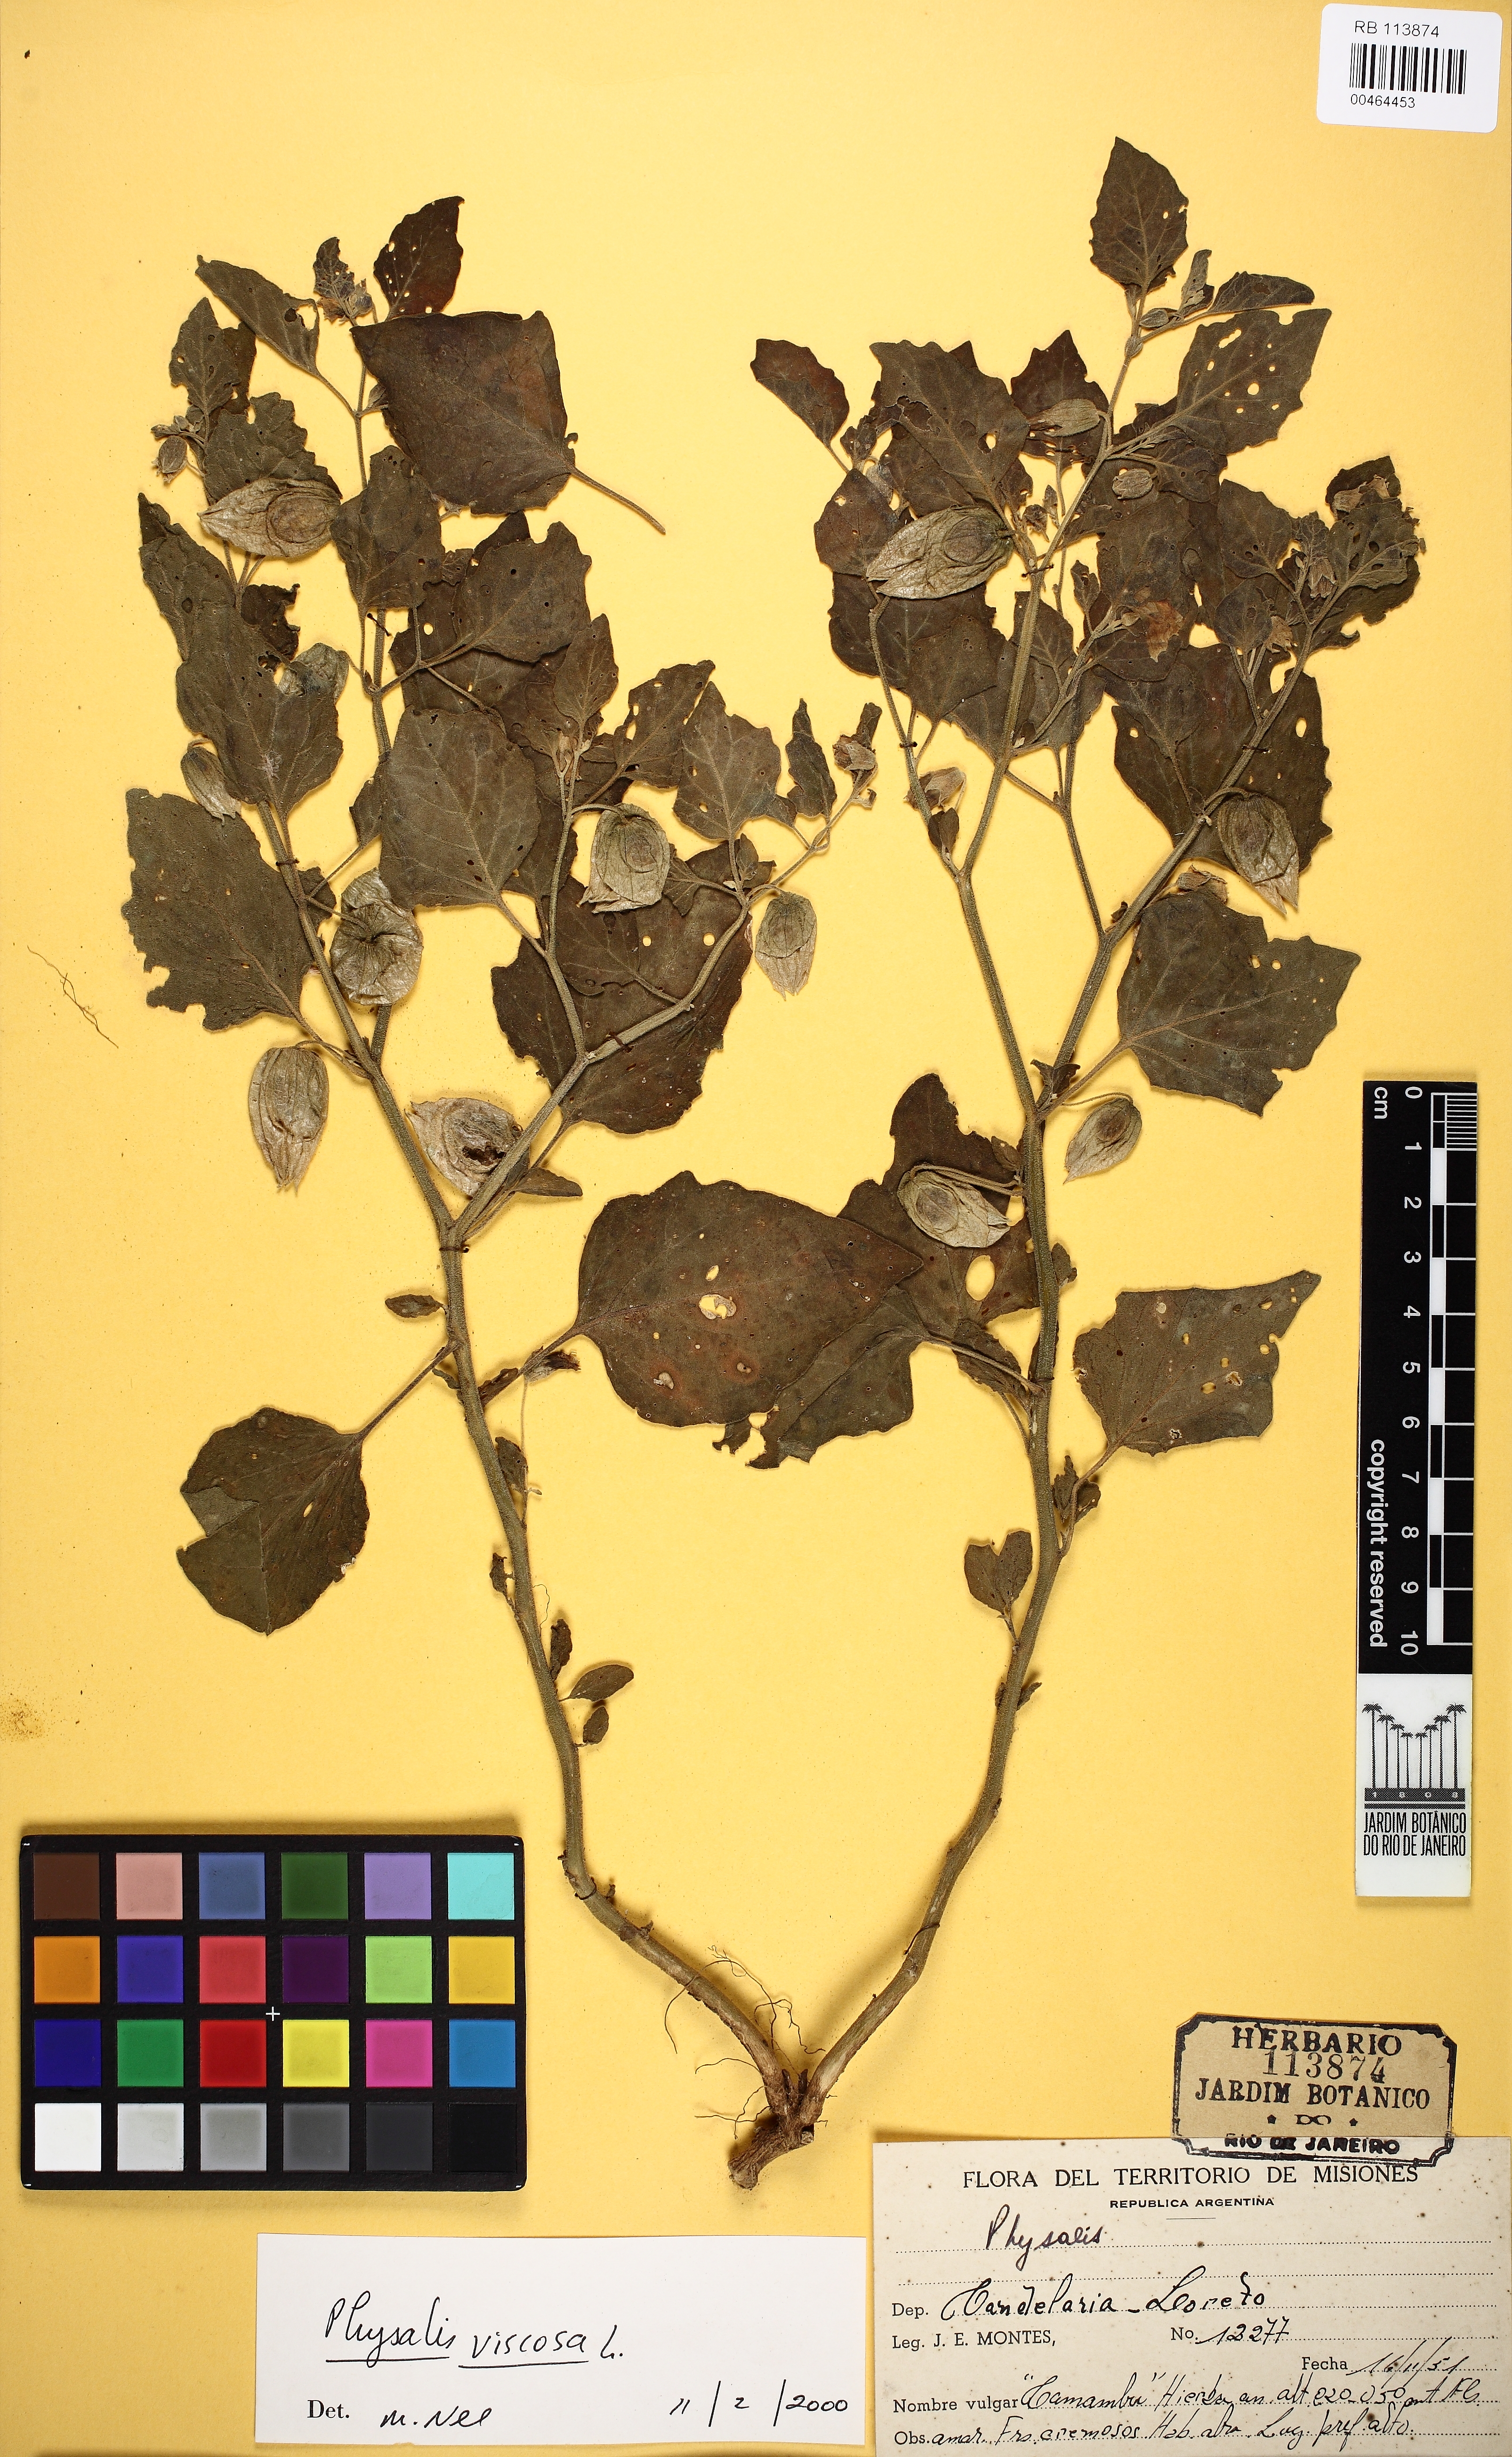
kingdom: Plantae
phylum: Tracheophyta
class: Magnoliopsida
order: Solanales
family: Solanaceae
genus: Physalis
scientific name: Physalis viscosa
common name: Stellate ground-cherry
